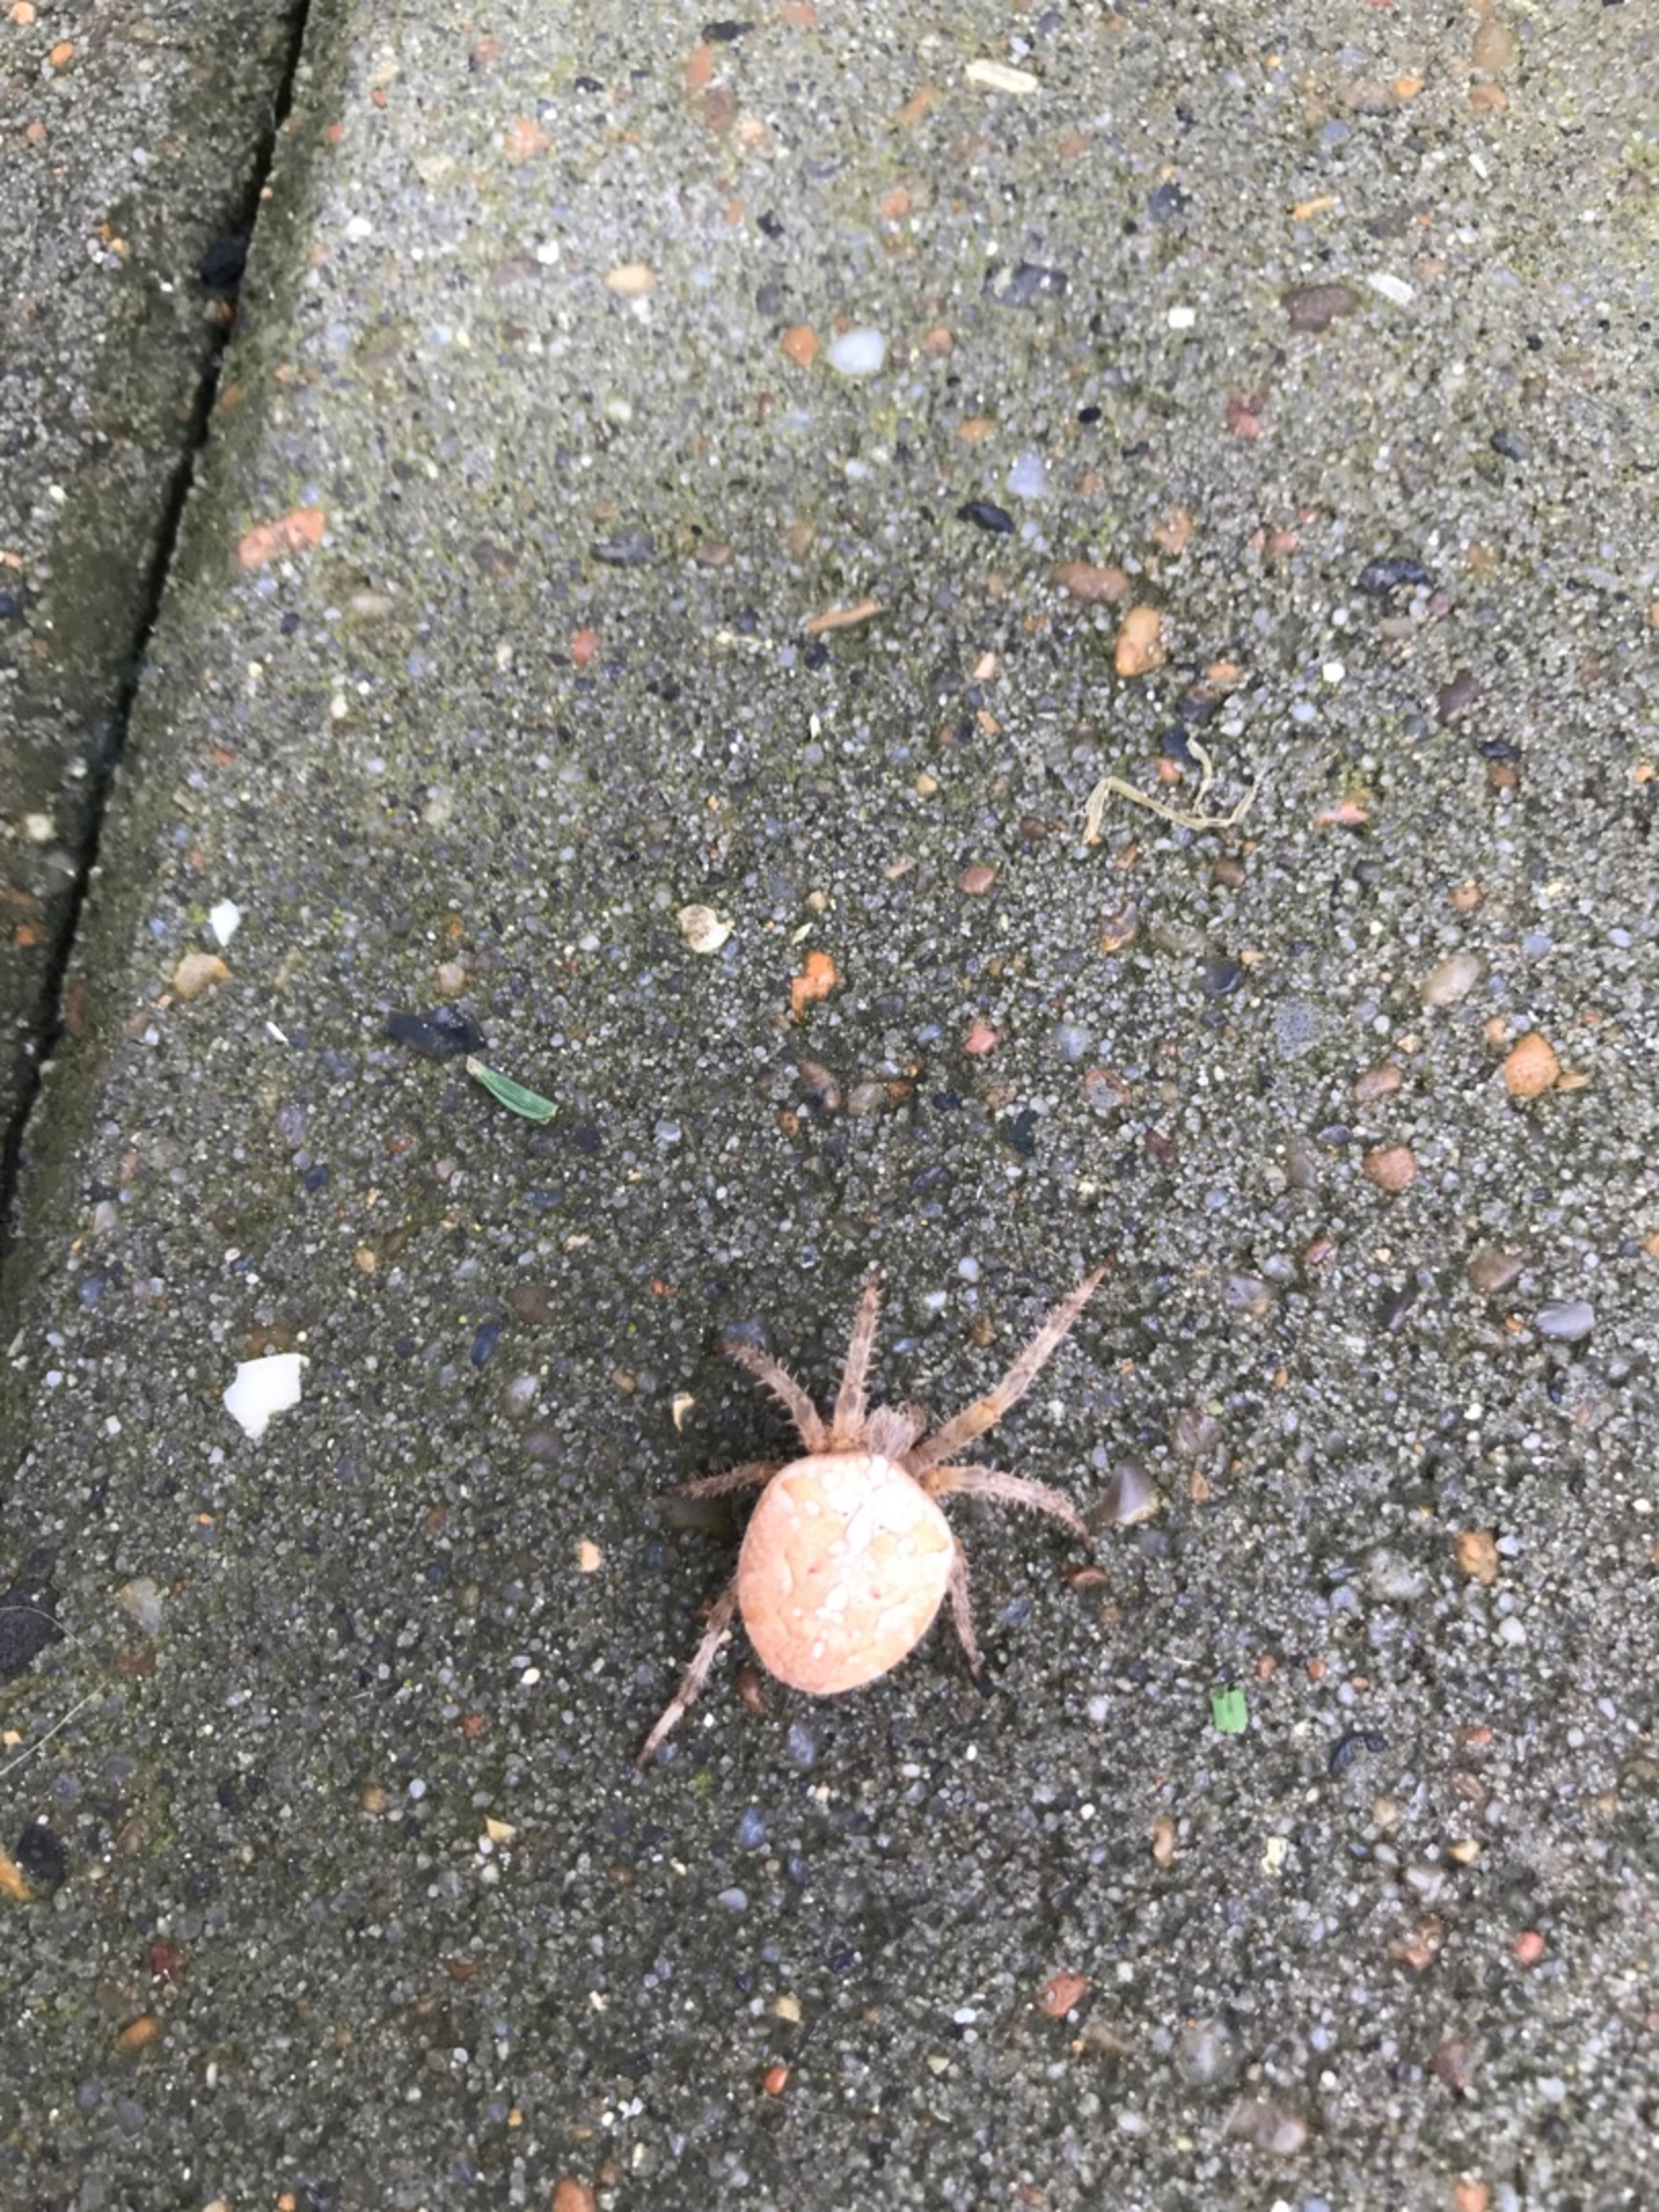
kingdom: Animalia
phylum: Arthropoda
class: Arachnida
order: Araneae
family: Araneidae
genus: Araneus
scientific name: Araneus diadematus
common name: Korsedderkop
